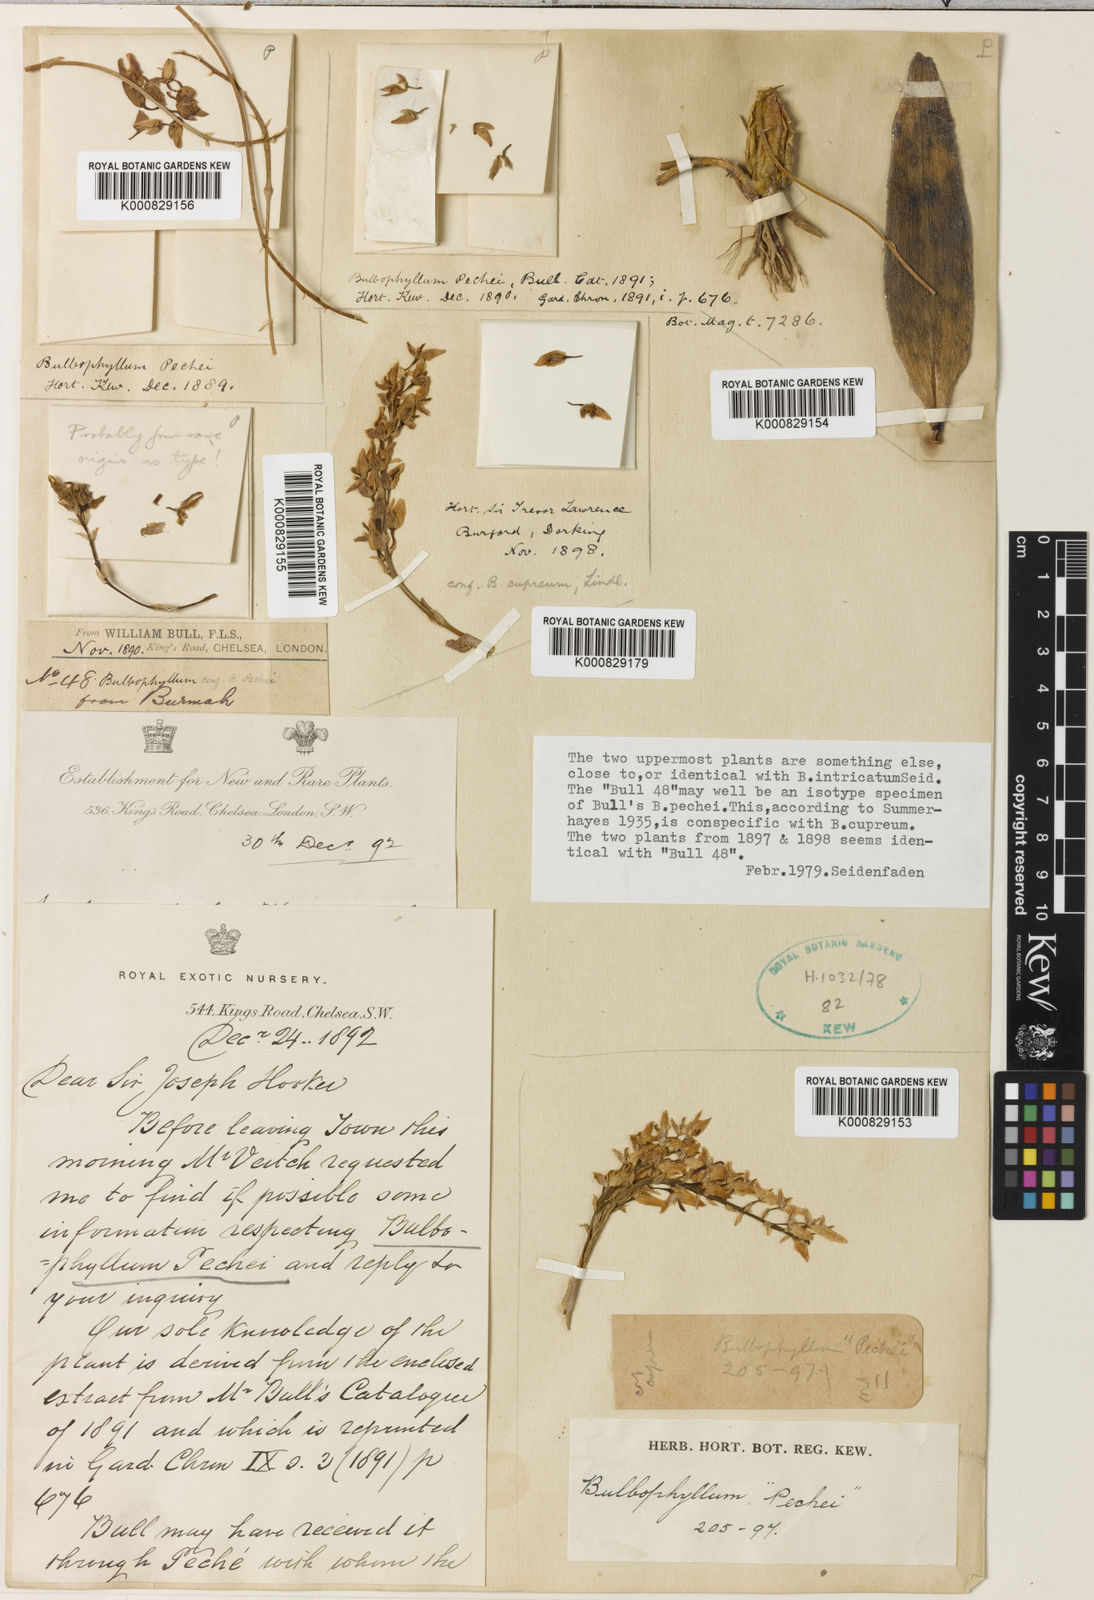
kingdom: Plantae
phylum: Tracheophyta
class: Liliopsida
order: Asparagales
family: Orchidaceae
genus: Bulbophyllum
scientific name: Bulbophyllum cupreum
